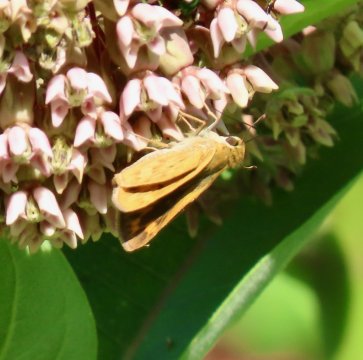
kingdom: Animalia
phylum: Arthropoda
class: Insecta
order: Lepidoptera
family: Hesperiidae
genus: Hylephila
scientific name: Hylephila phyleus
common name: Fiery Skipper
